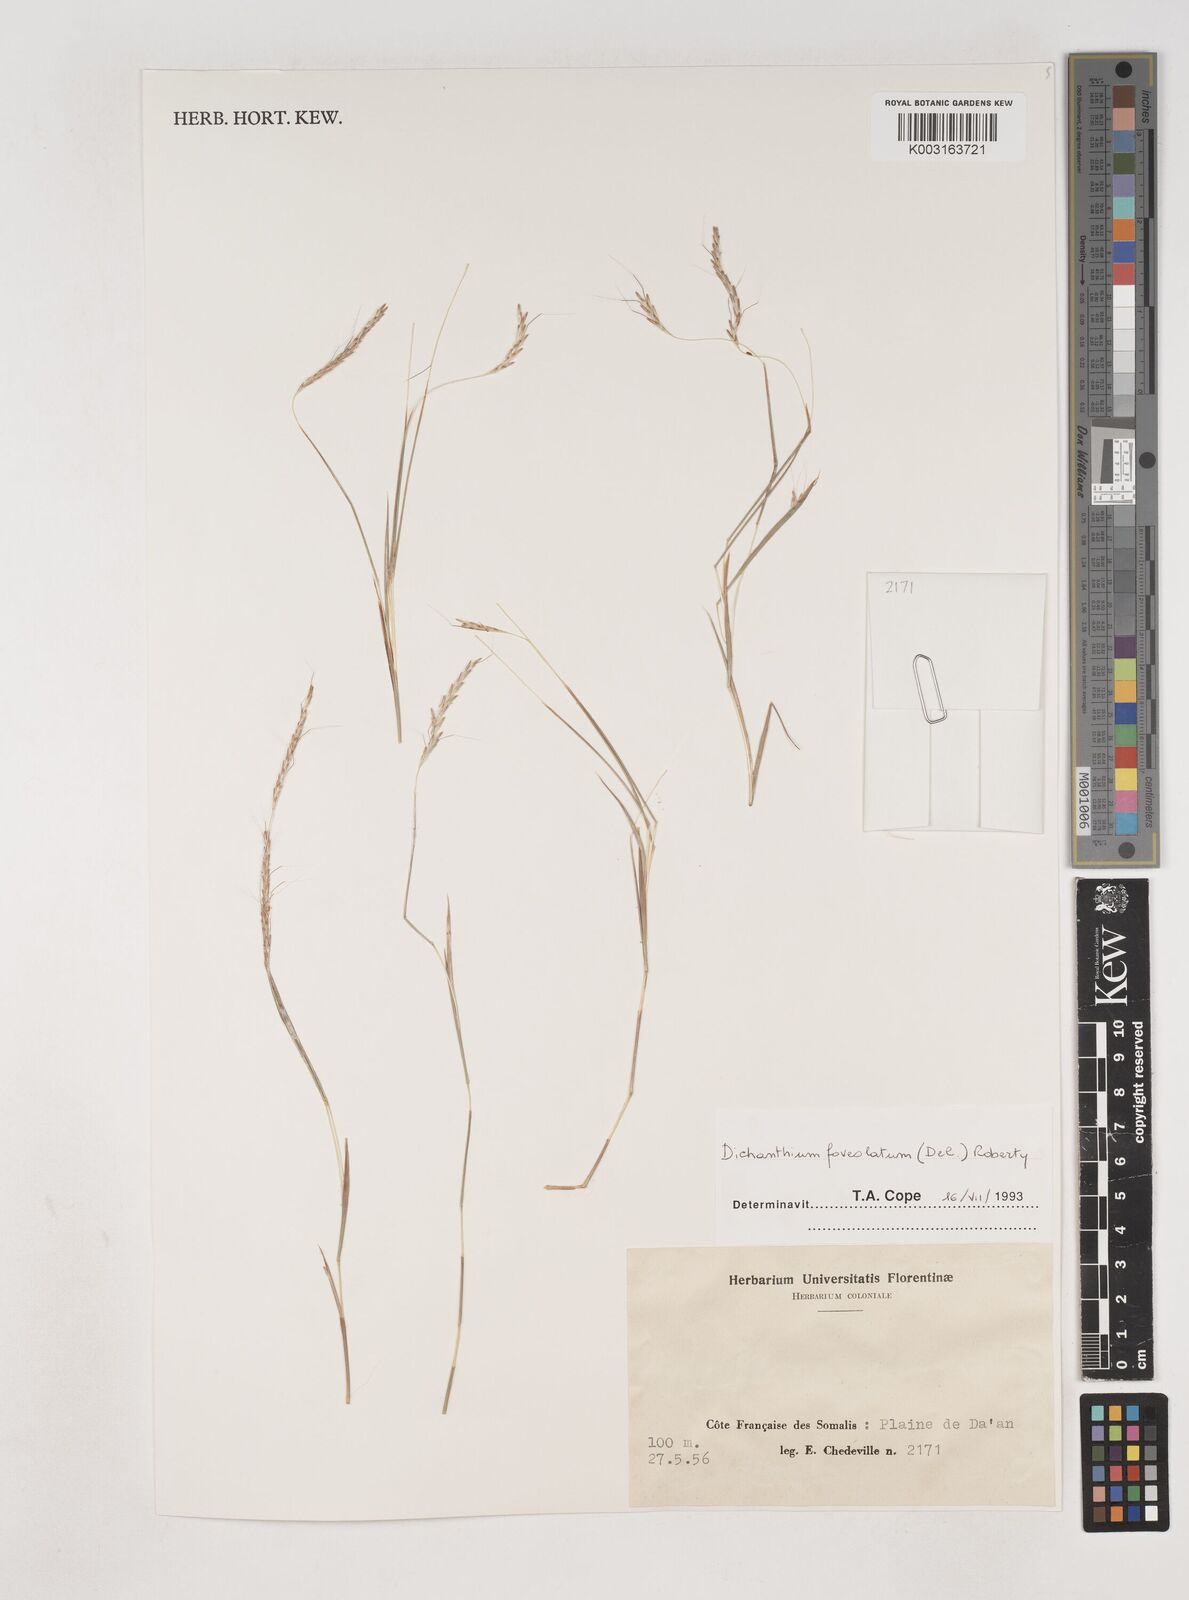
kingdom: Plantae
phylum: Tracheophyta
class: Liliopsida
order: Poales
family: Poaceae
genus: Dichanthium
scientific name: Dichanthium foveolatum
